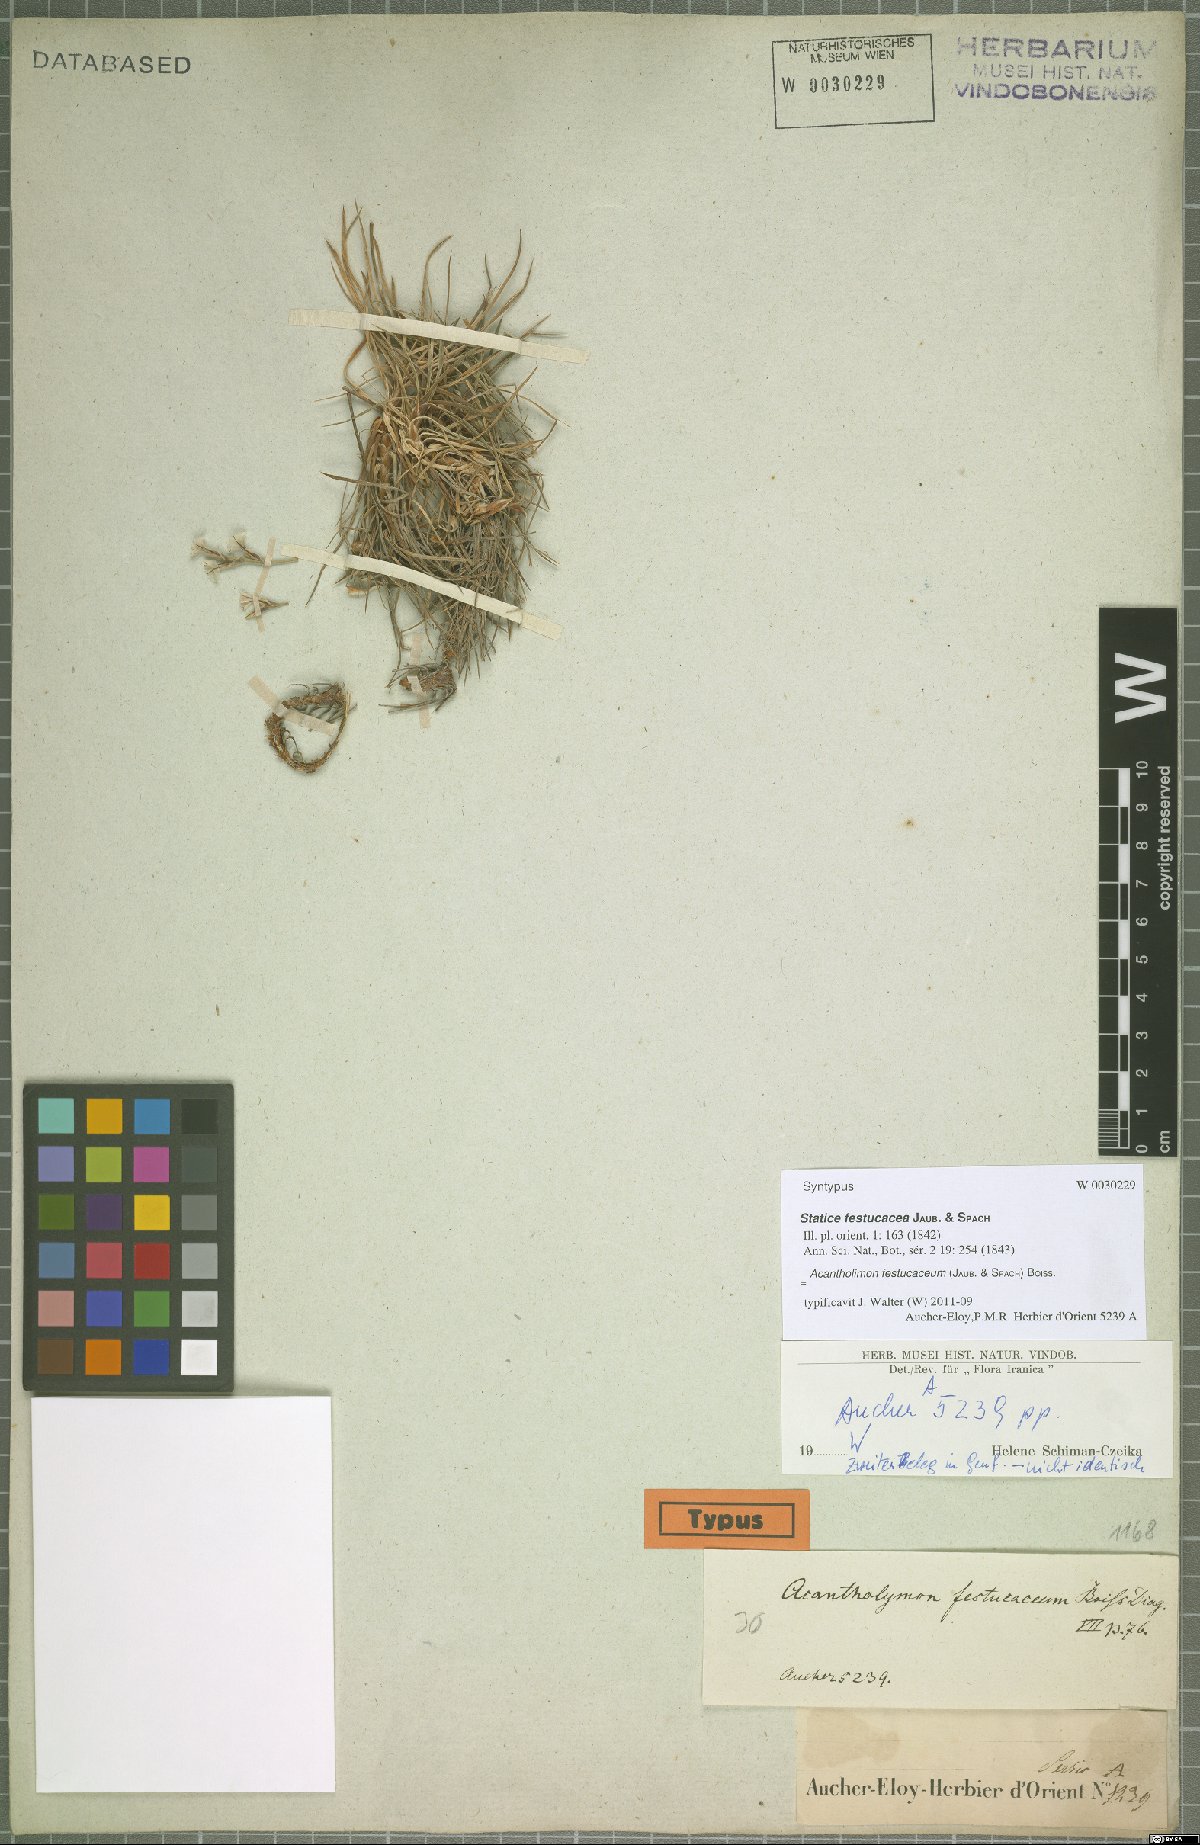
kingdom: Plantae
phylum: Tracheophyta
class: Magnoliopsida
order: Caryophyllales
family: Plumbaginaceae
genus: Acantholimon
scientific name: Acantholimon festucaceum
